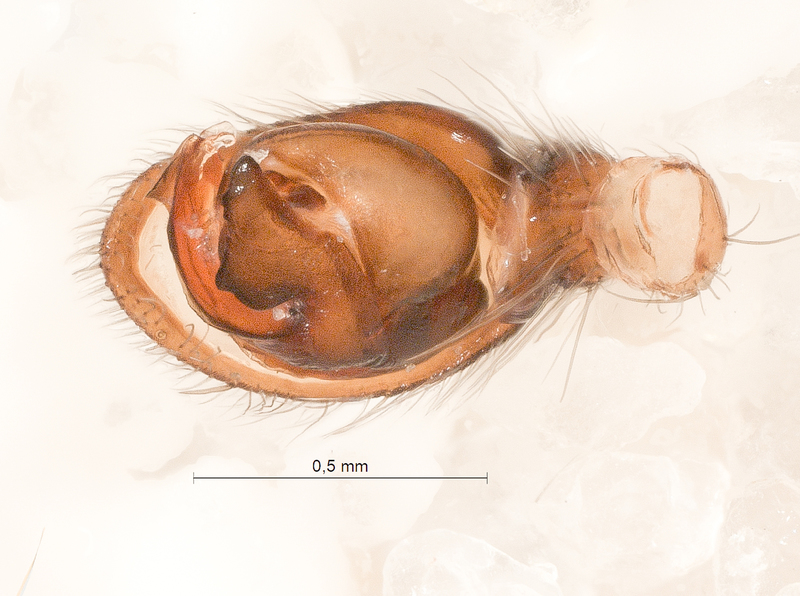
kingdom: Animalia
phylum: Arthropoda
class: Arachnida
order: Araneae
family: Gnaphosidae
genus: Haplodrassus
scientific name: Haplodrassus dalmatensis
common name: Heath grasper
